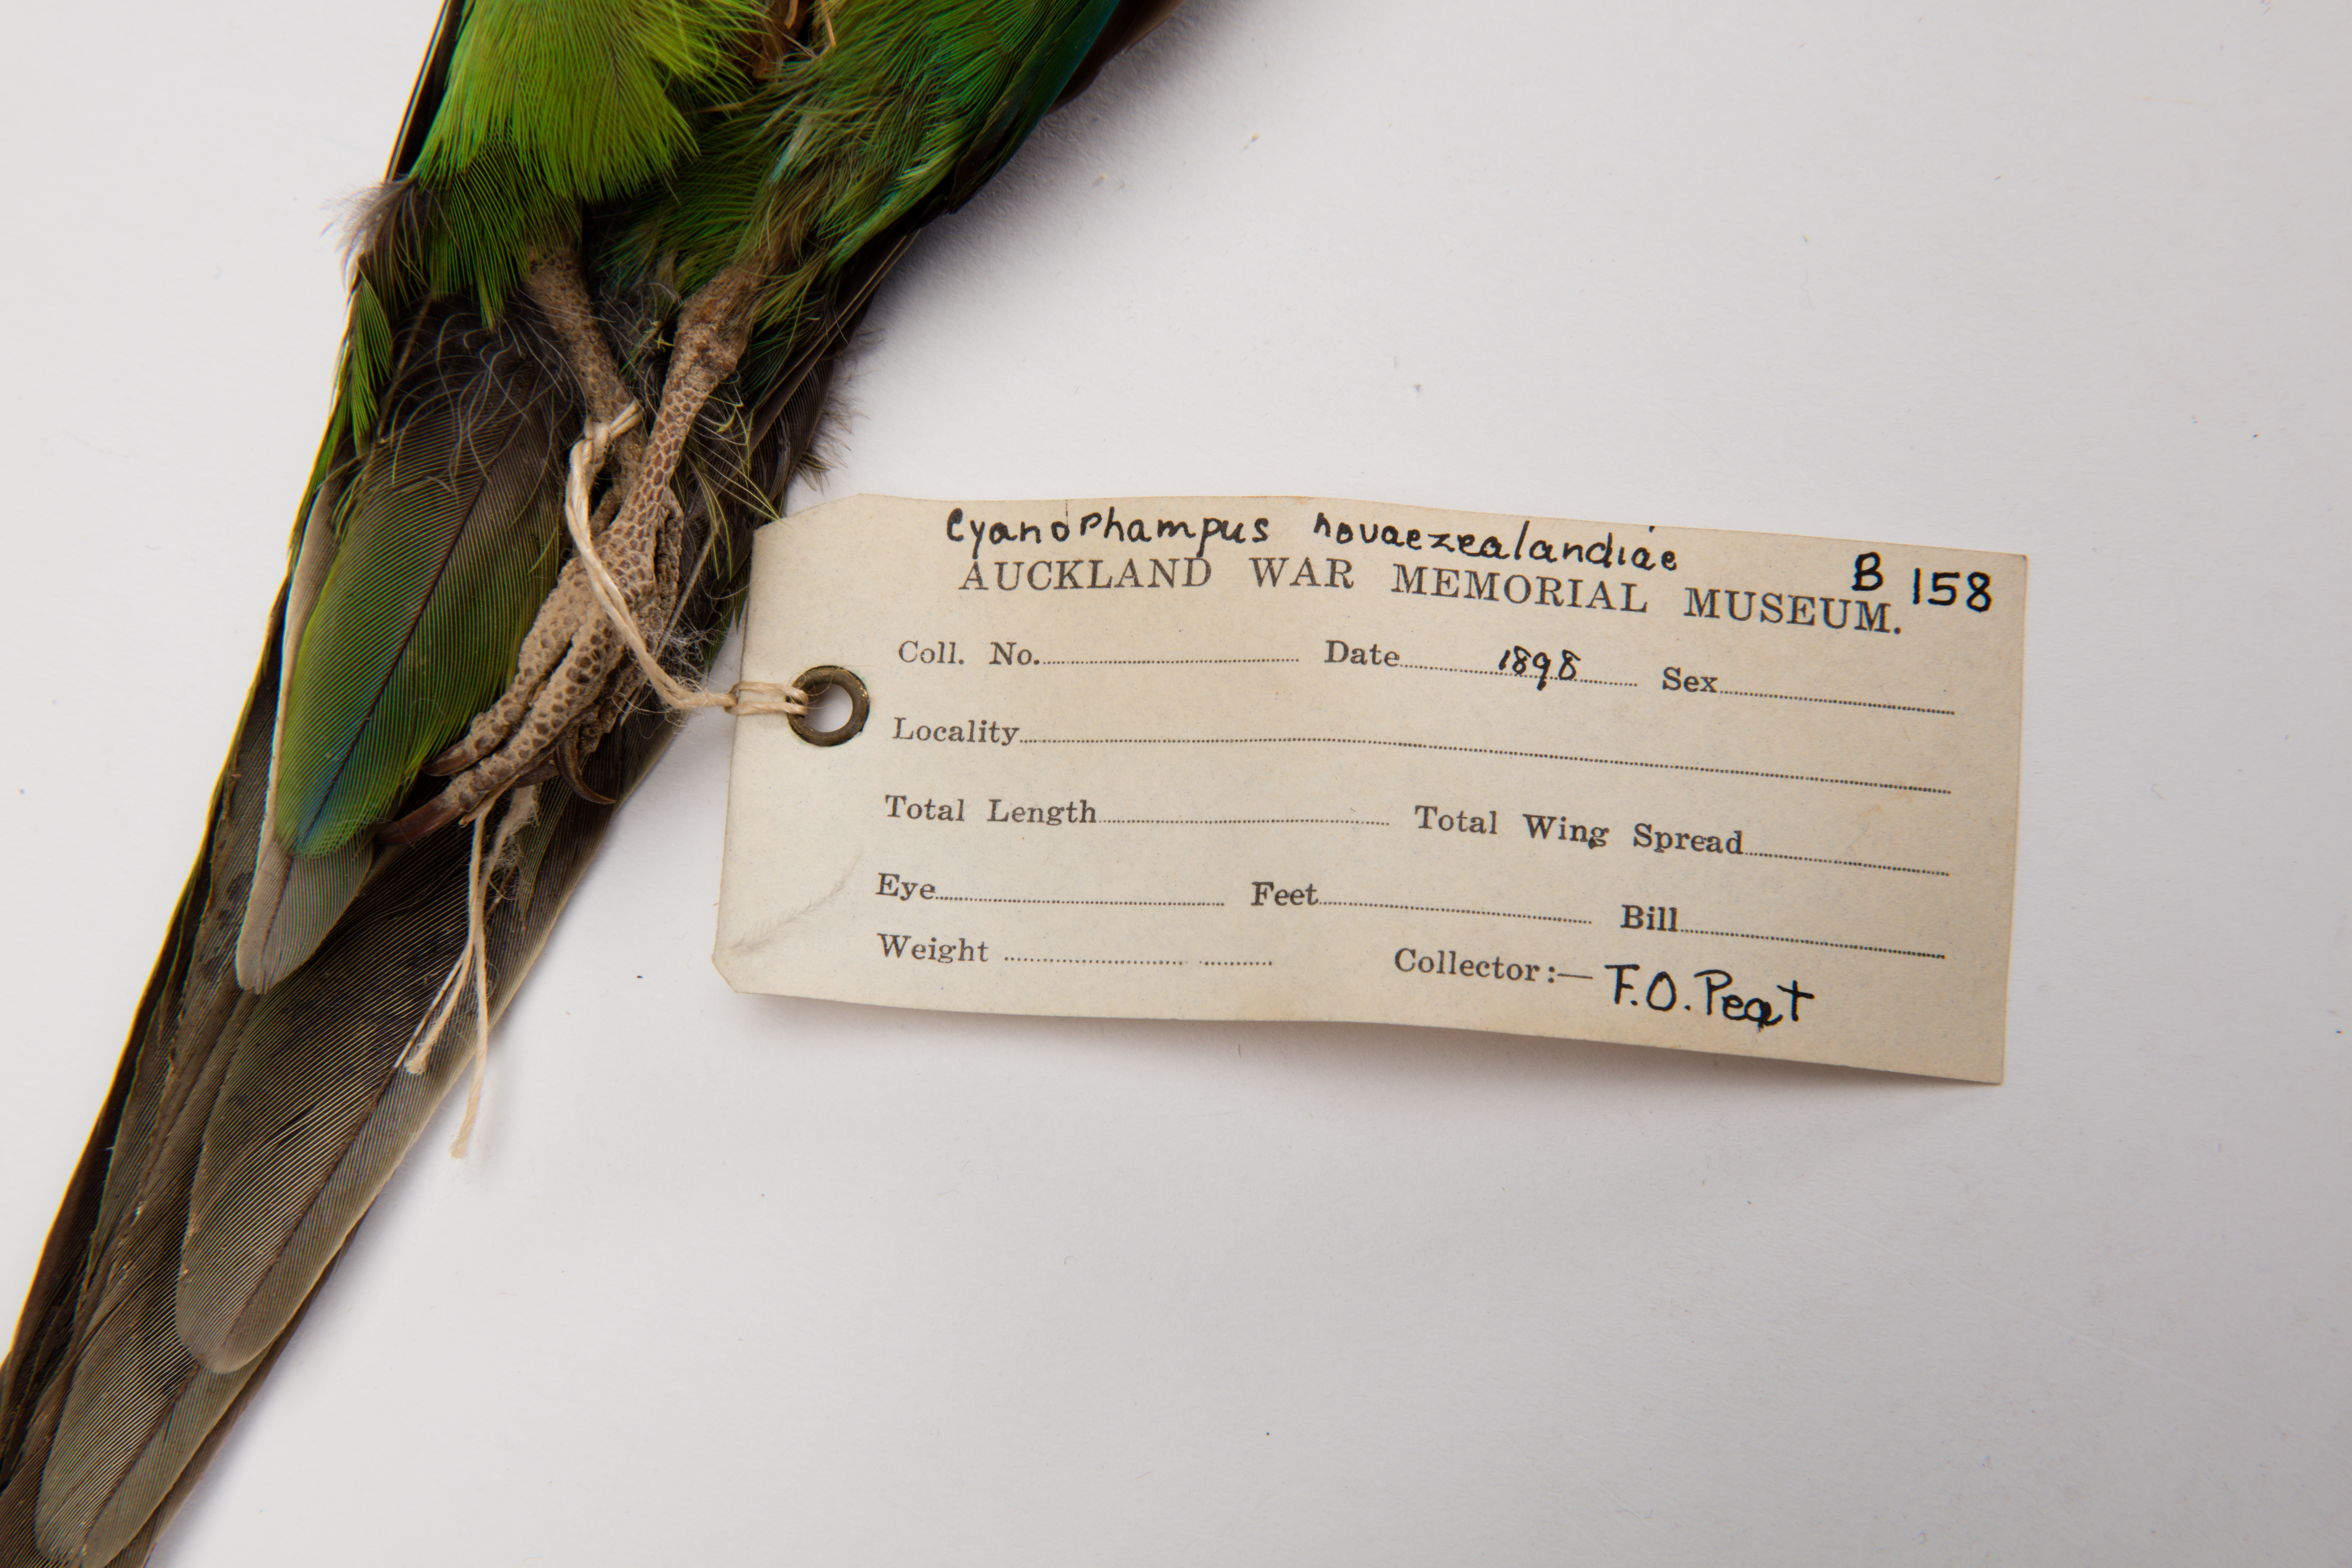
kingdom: Animalia
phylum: Chordata
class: Aves
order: Psittaciformes
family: Psittacidae
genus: Cyanoramphus
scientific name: Cyanoramphus novaezelandiae
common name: Red-fronted parakeet
